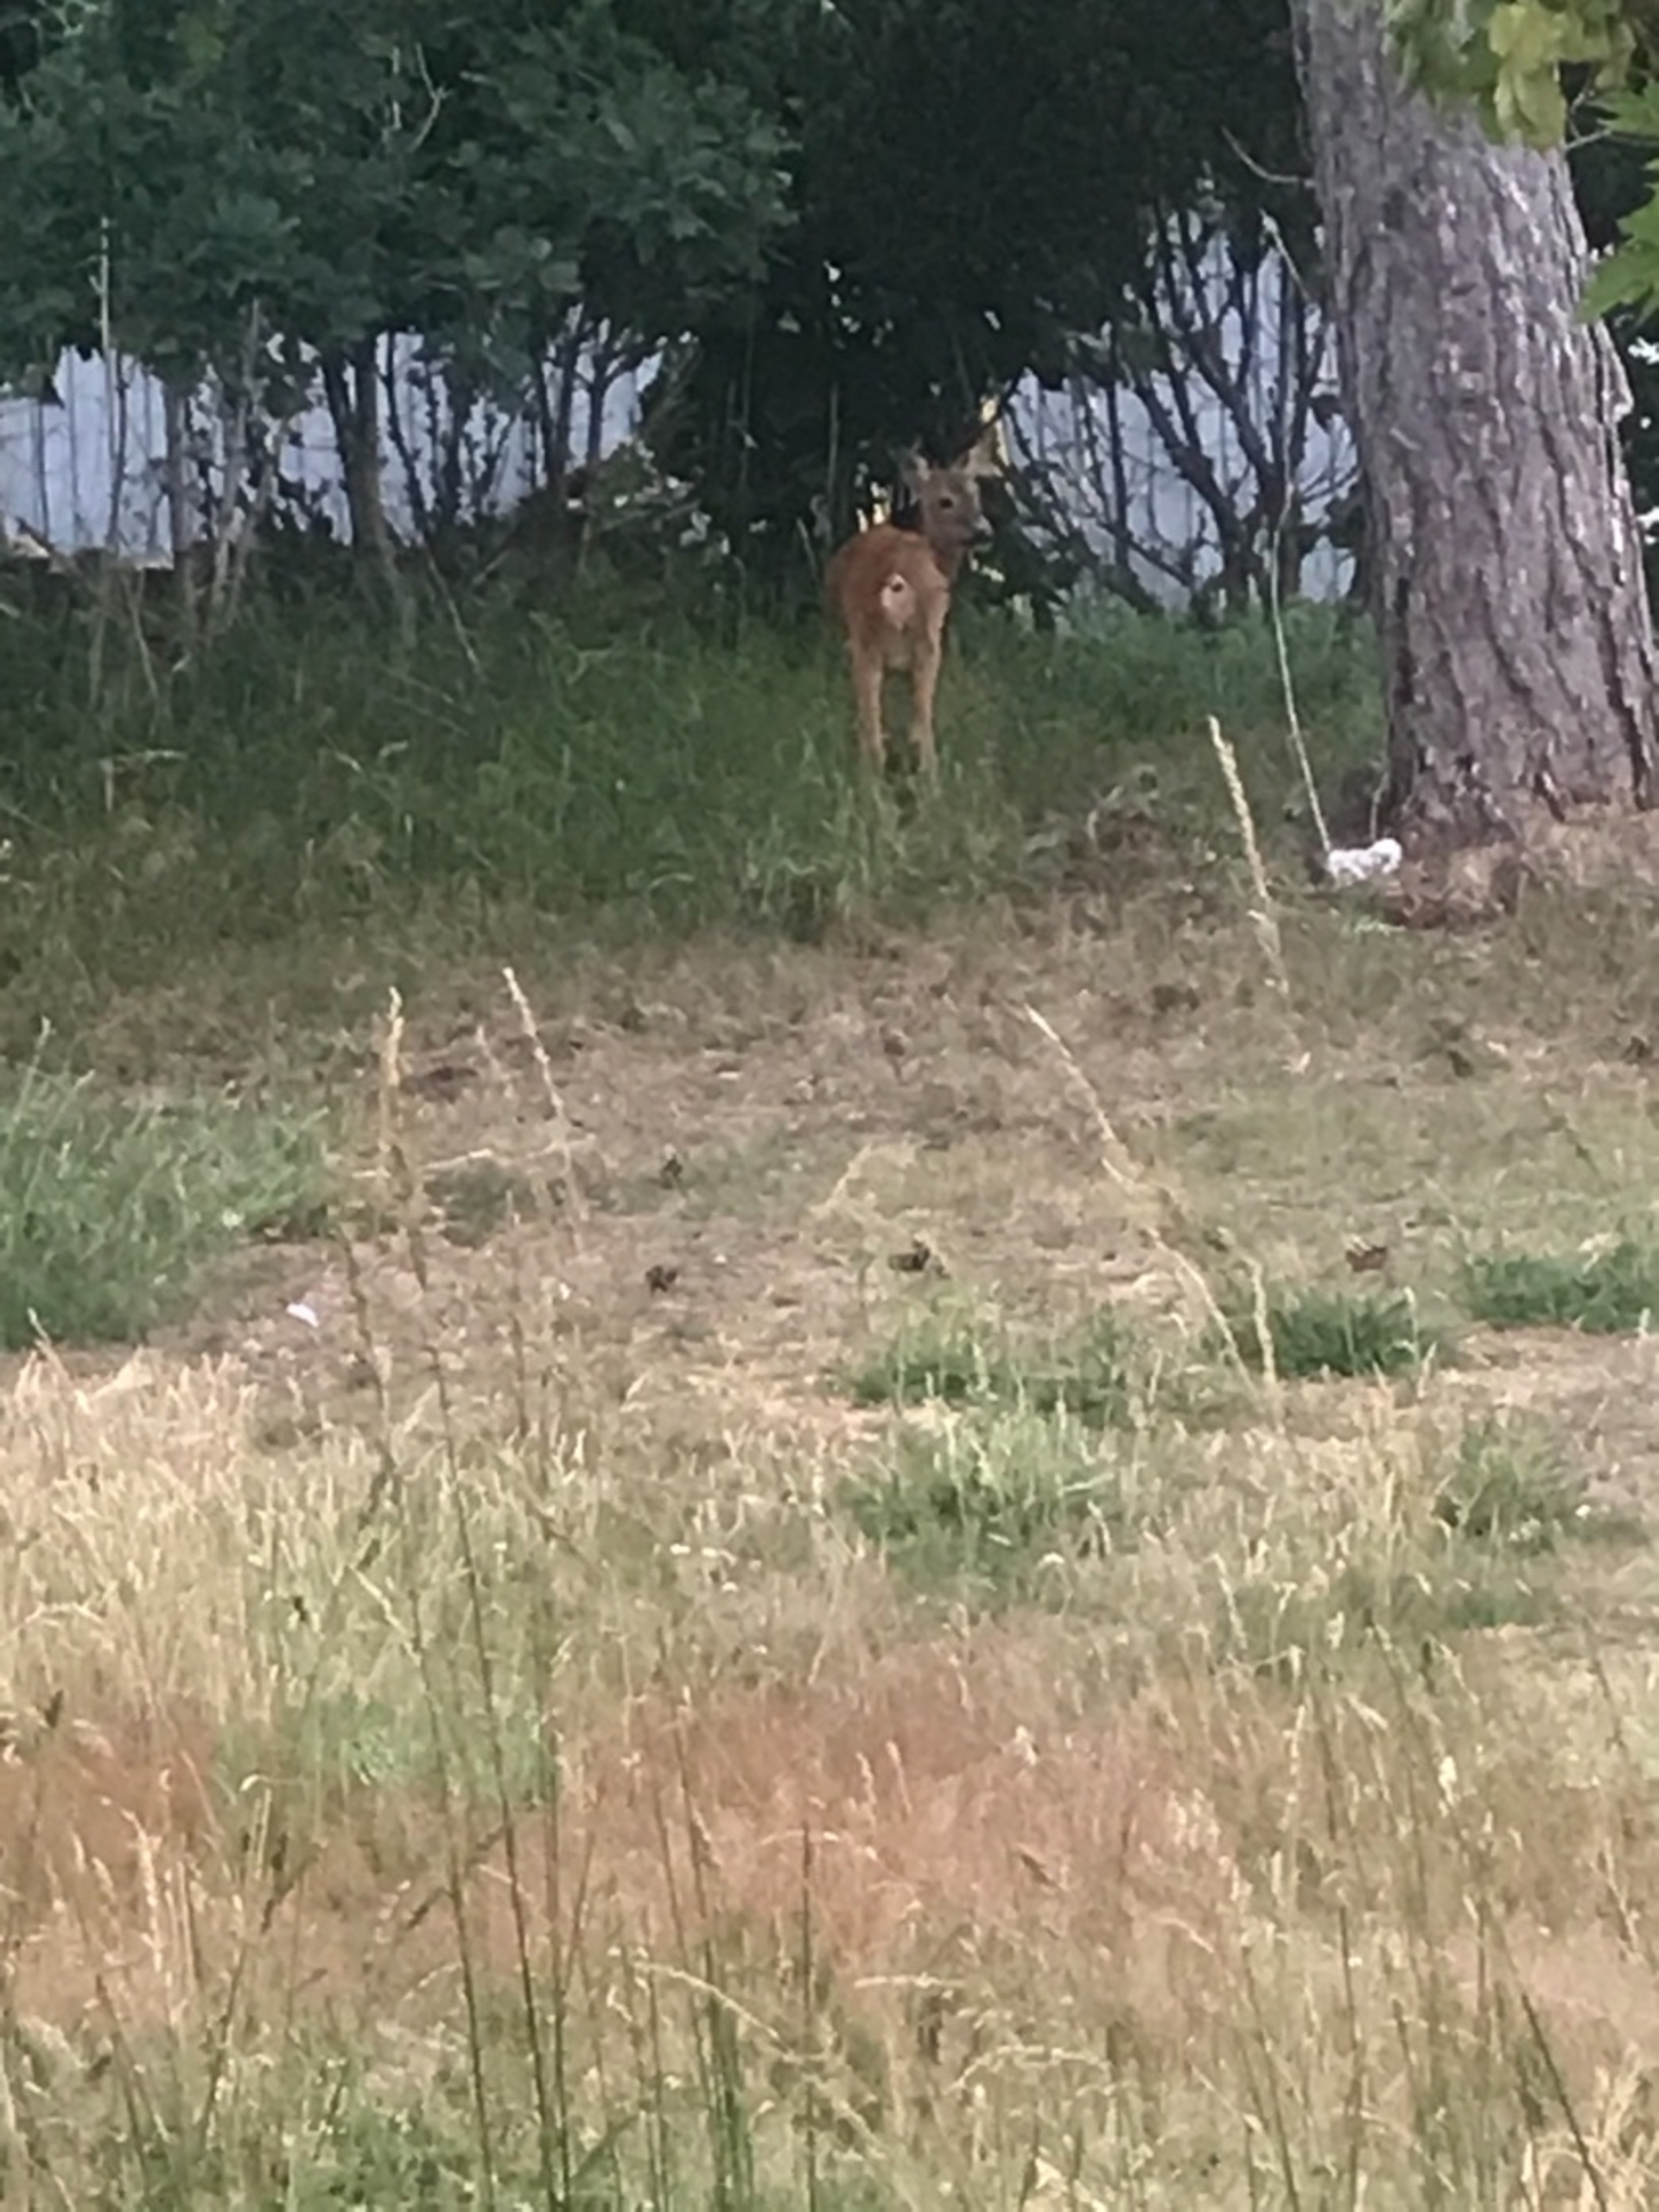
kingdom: Animalia
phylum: Chordata
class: Mammalia
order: Artiodactyla
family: Cervidae
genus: Capreolus
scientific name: Capreolus capreolus
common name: Rådyr
